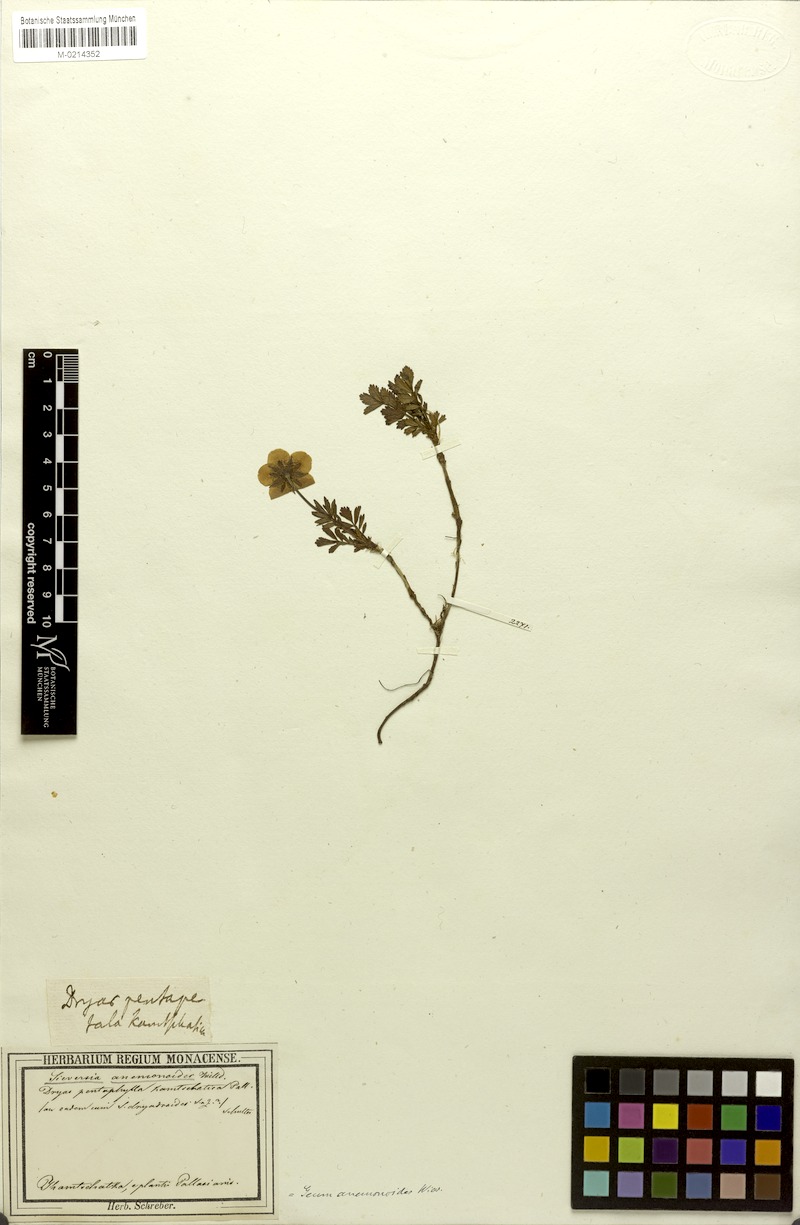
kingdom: Plantae
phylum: Tracheophyta
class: Magnoliopsida
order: Rosales
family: Rosaceae
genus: Geum
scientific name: Geum geoides
